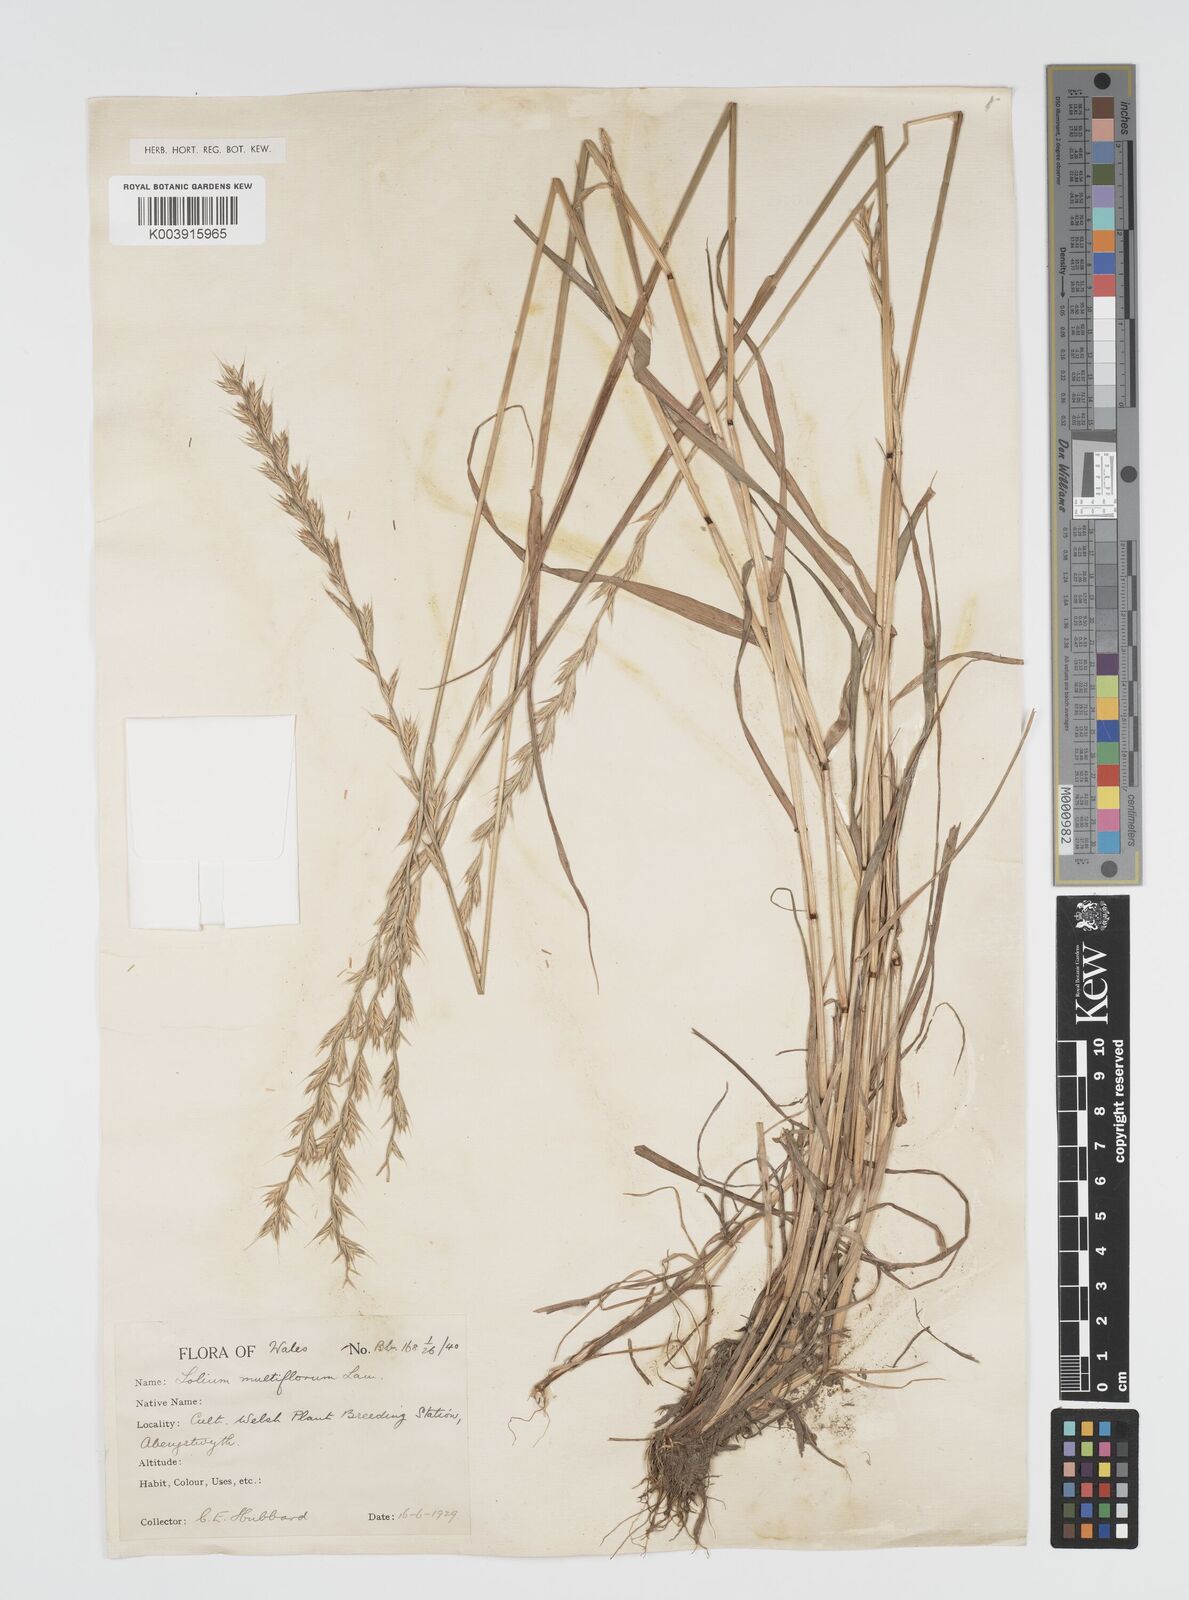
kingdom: Plantae
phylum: Tracheophyta
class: Liliopsida
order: Poales
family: Poaceae
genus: Lolium
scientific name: Lolium multiflorum
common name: Annual ryegrass
